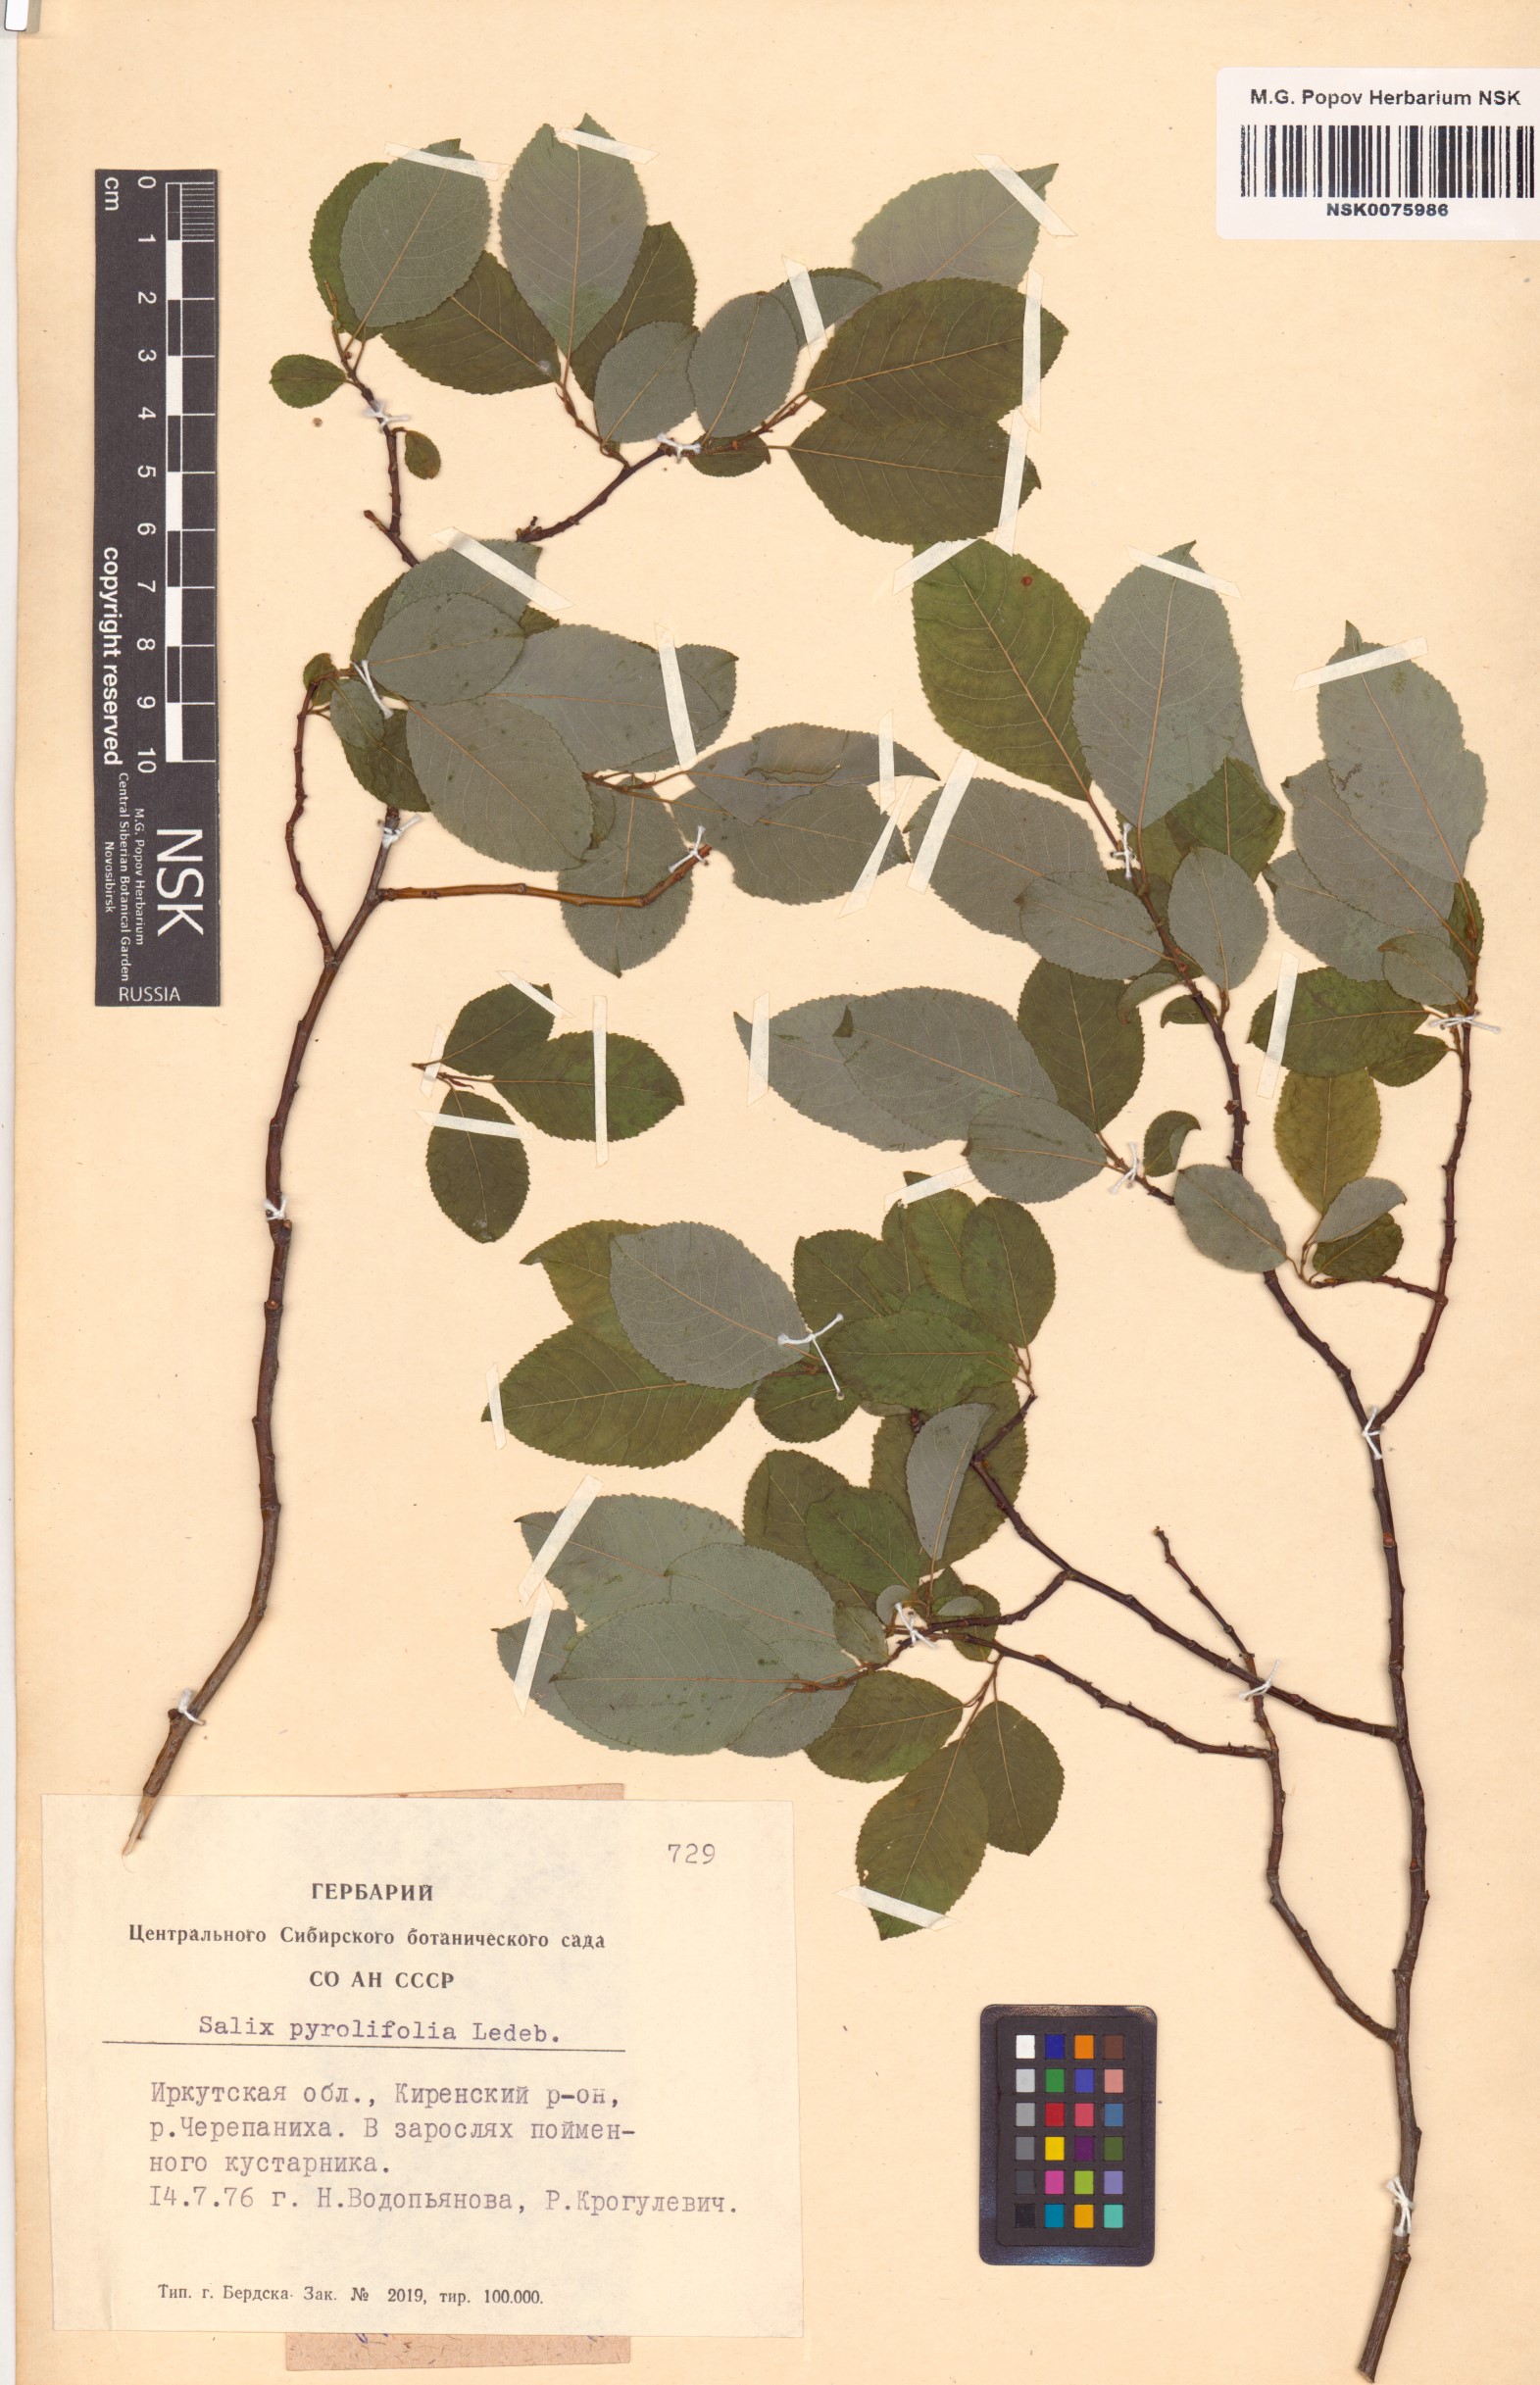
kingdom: Plantae
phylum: Tracheophyta
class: Magnoliopsida
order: Malpighiales
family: Salicaceae
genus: Salix
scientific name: Salix pyrolifolia
